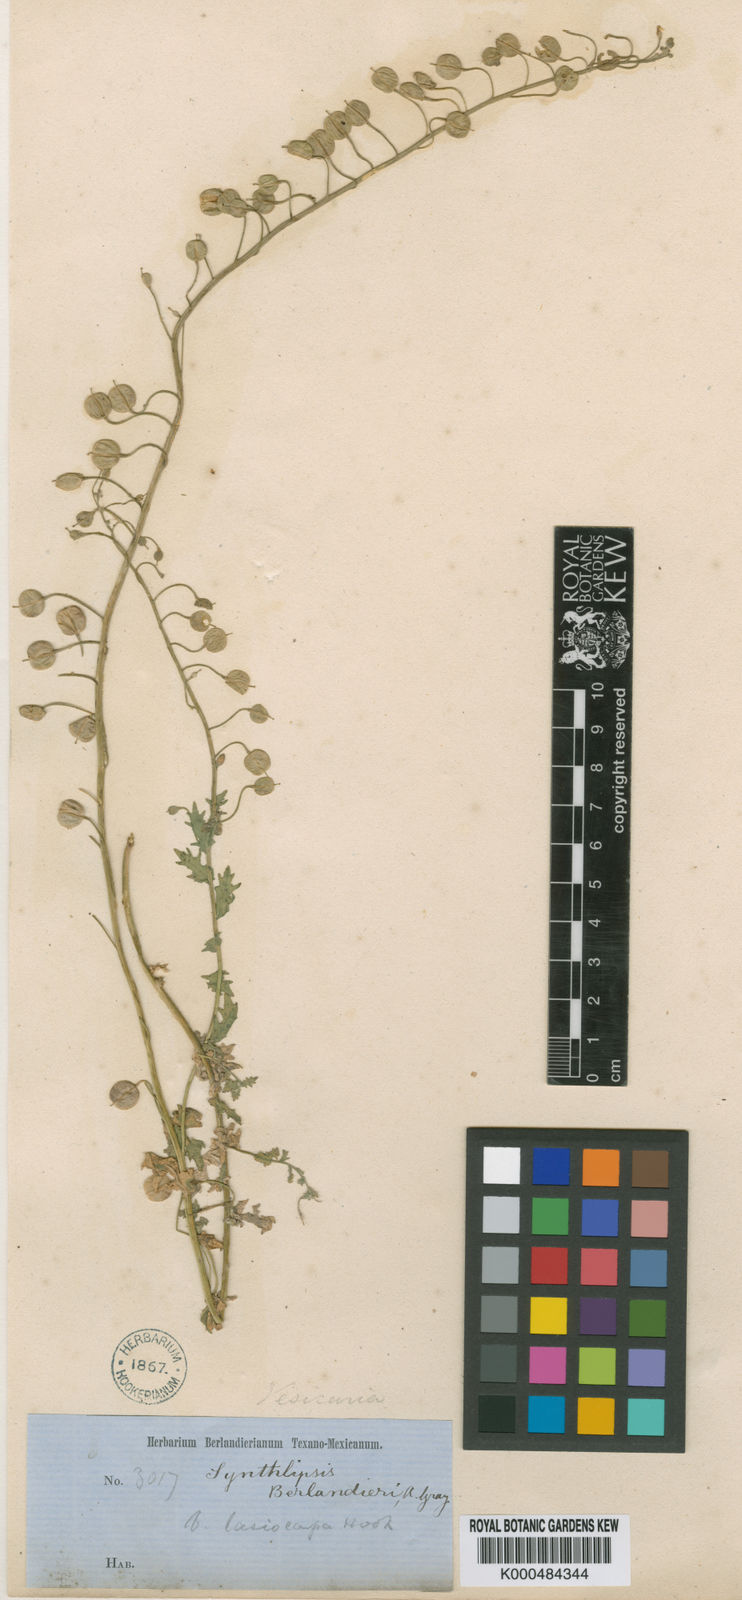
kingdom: Plantae
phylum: Tracheophyta
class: Magnoliopsida
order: Brassicales
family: Brassicaceae
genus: Physaria
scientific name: Physaria berlandieri
